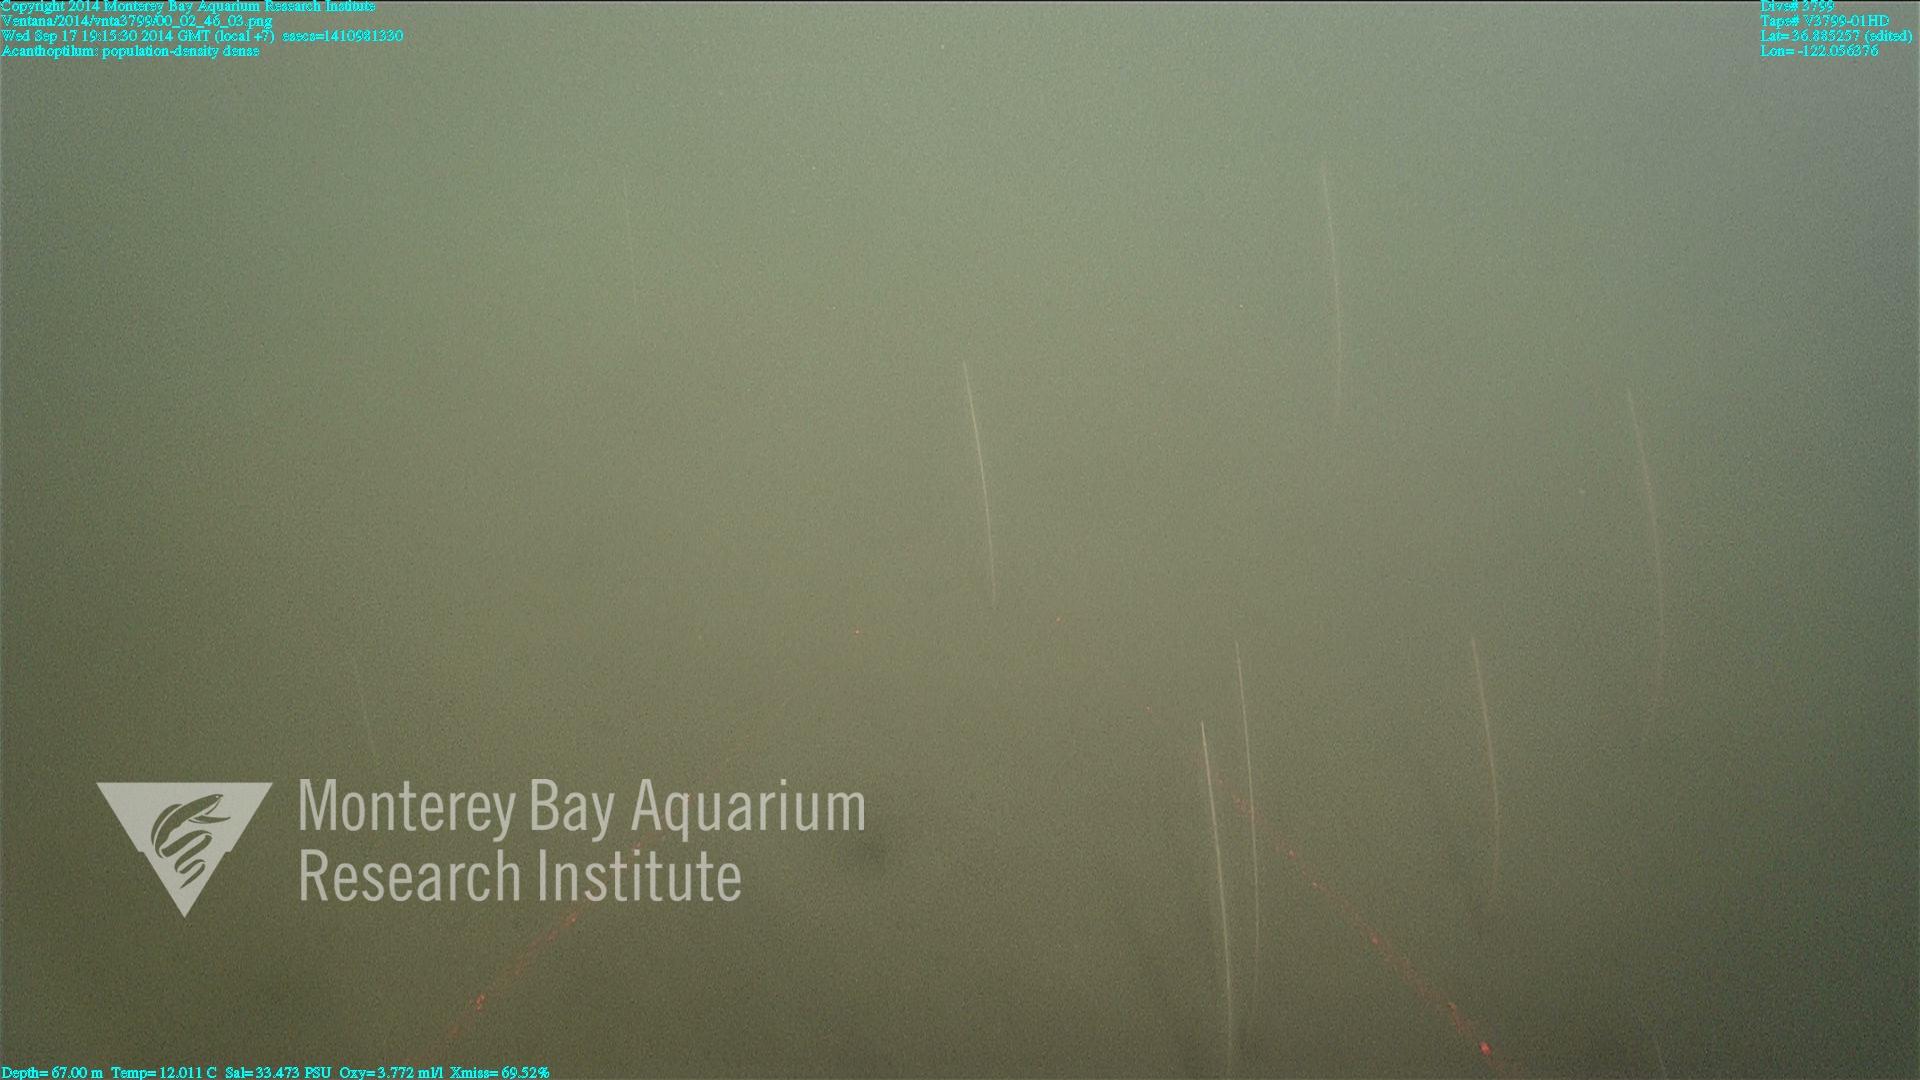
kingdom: Animalia
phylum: Cnidaria
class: Anthozoa
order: Scleralcyonacea
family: Virgulariidae
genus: Acanthoptilum
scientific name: Acanthoptilum
